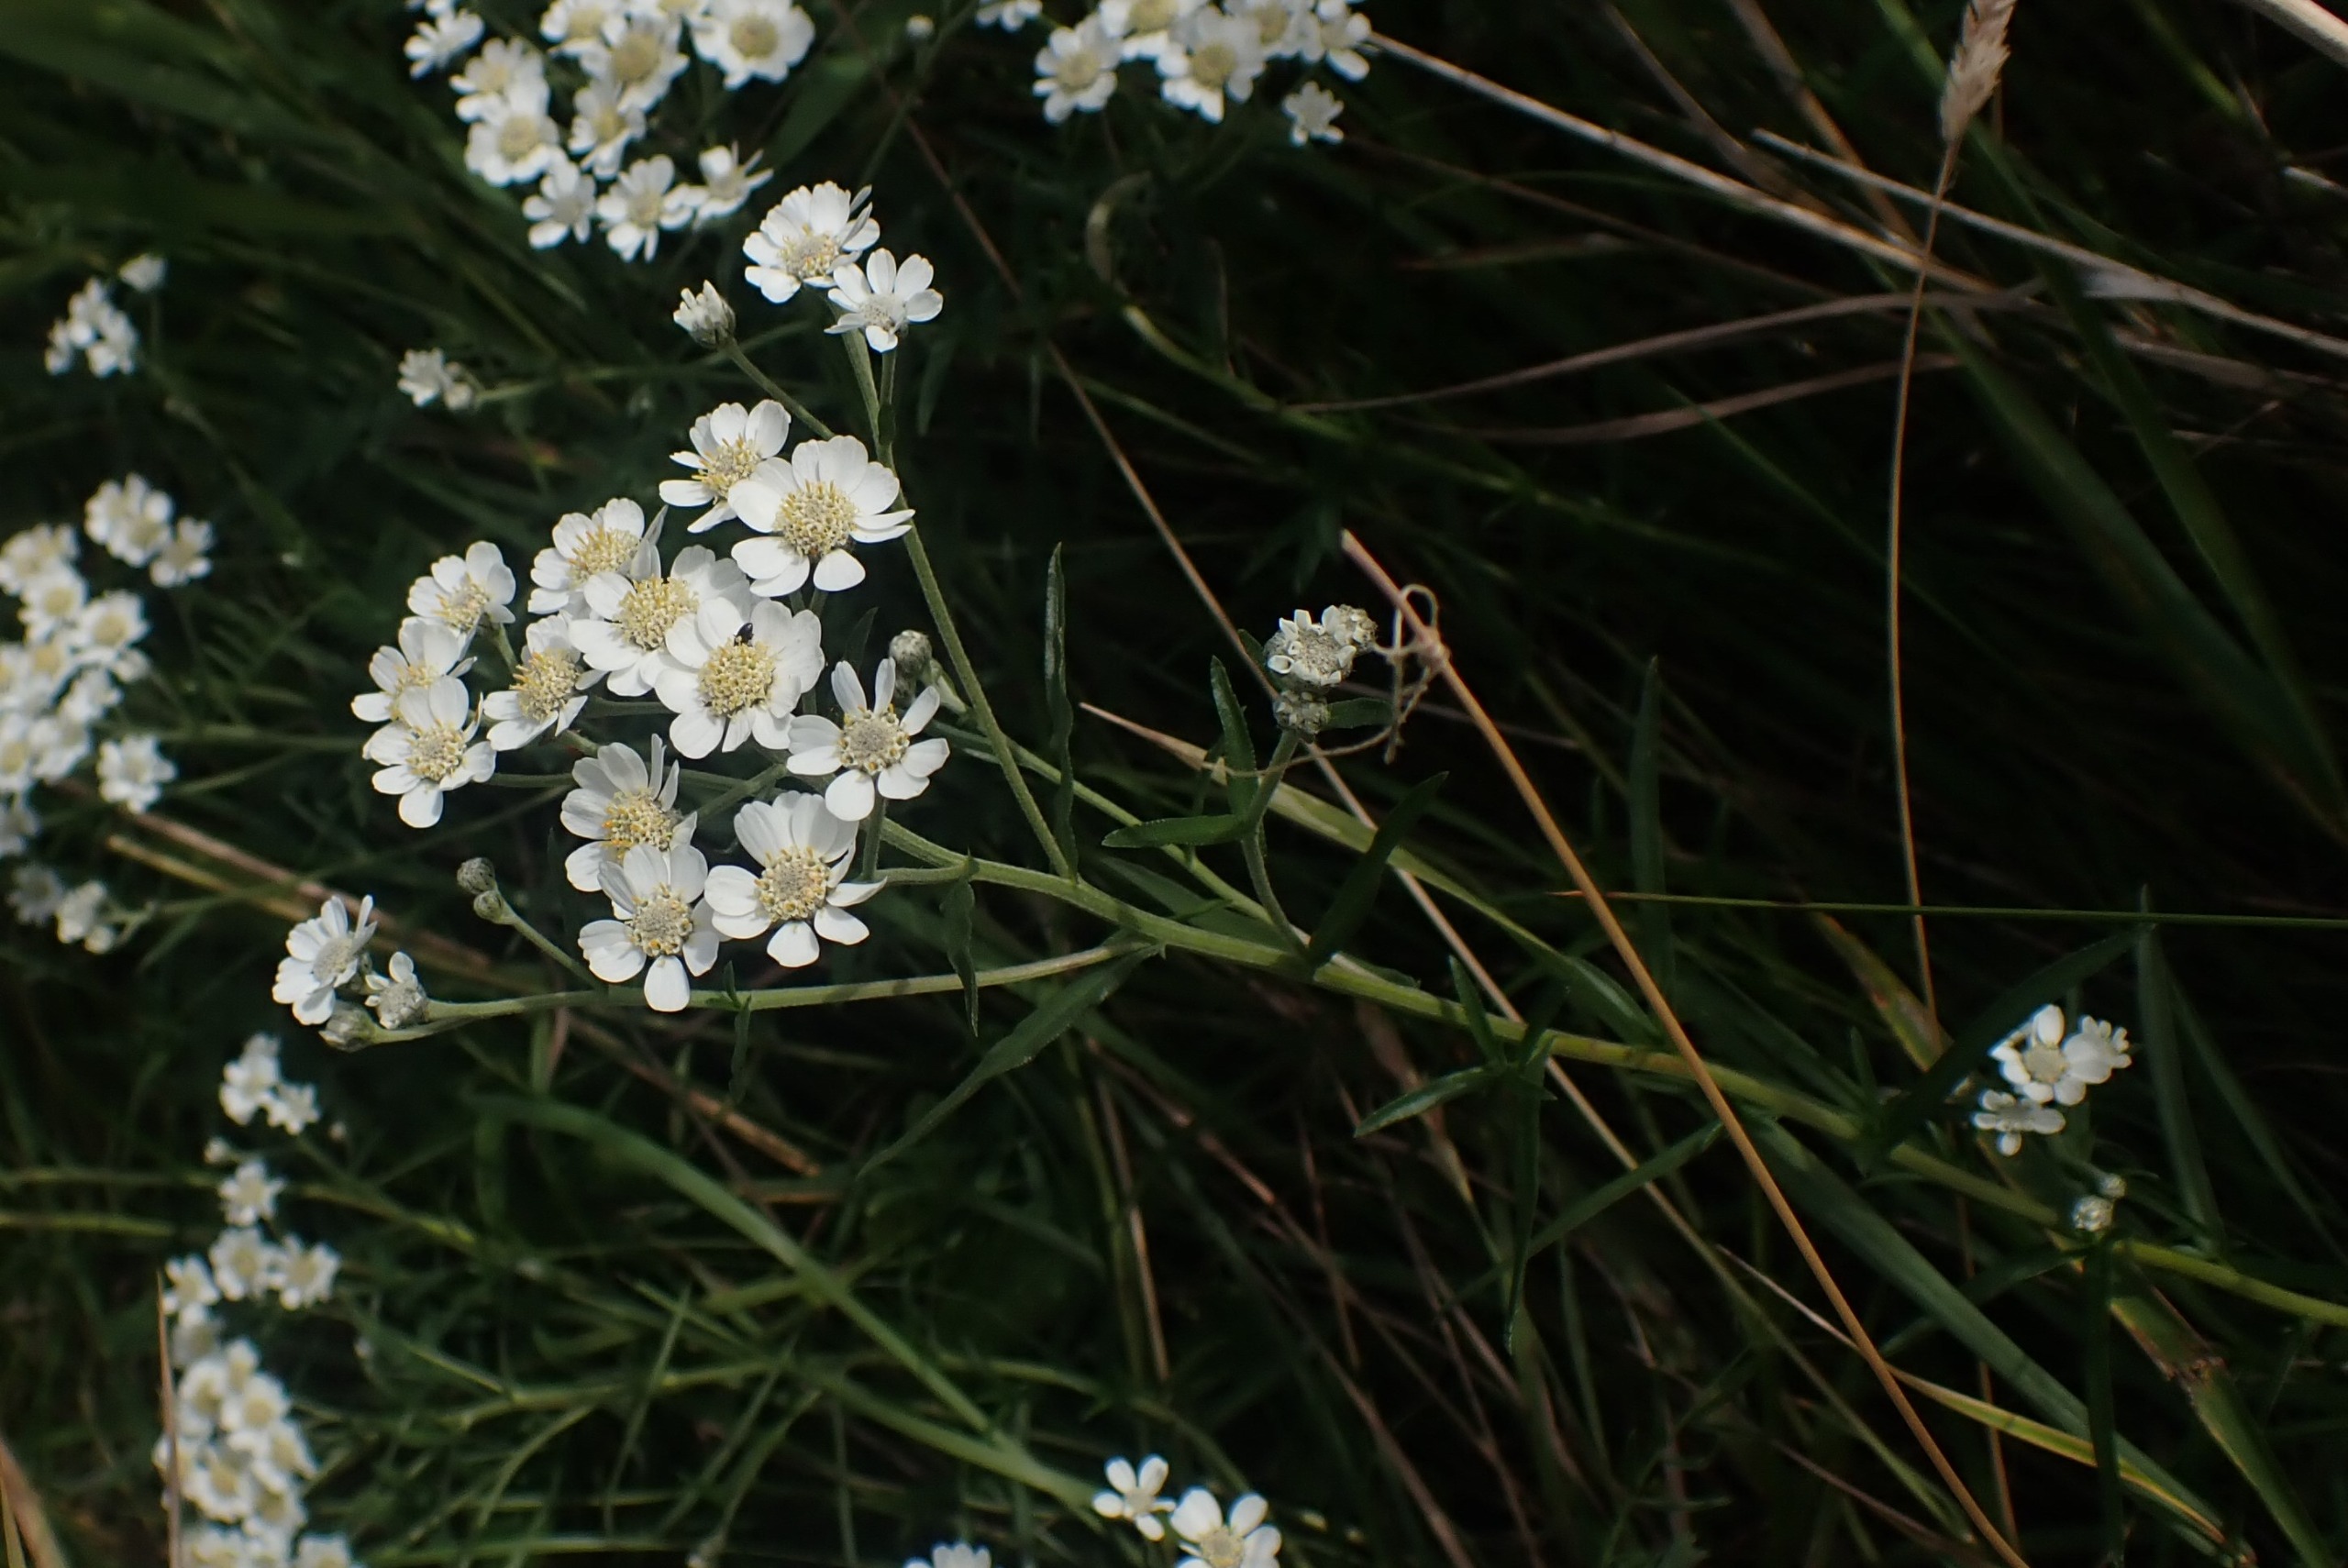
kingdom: Plantae
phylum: Tracheophyta
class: Magnoliopsida
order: Asterales
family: Asteraceae
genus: Achillea
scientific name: Achillea ptarmica
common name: Nyse-røllike
